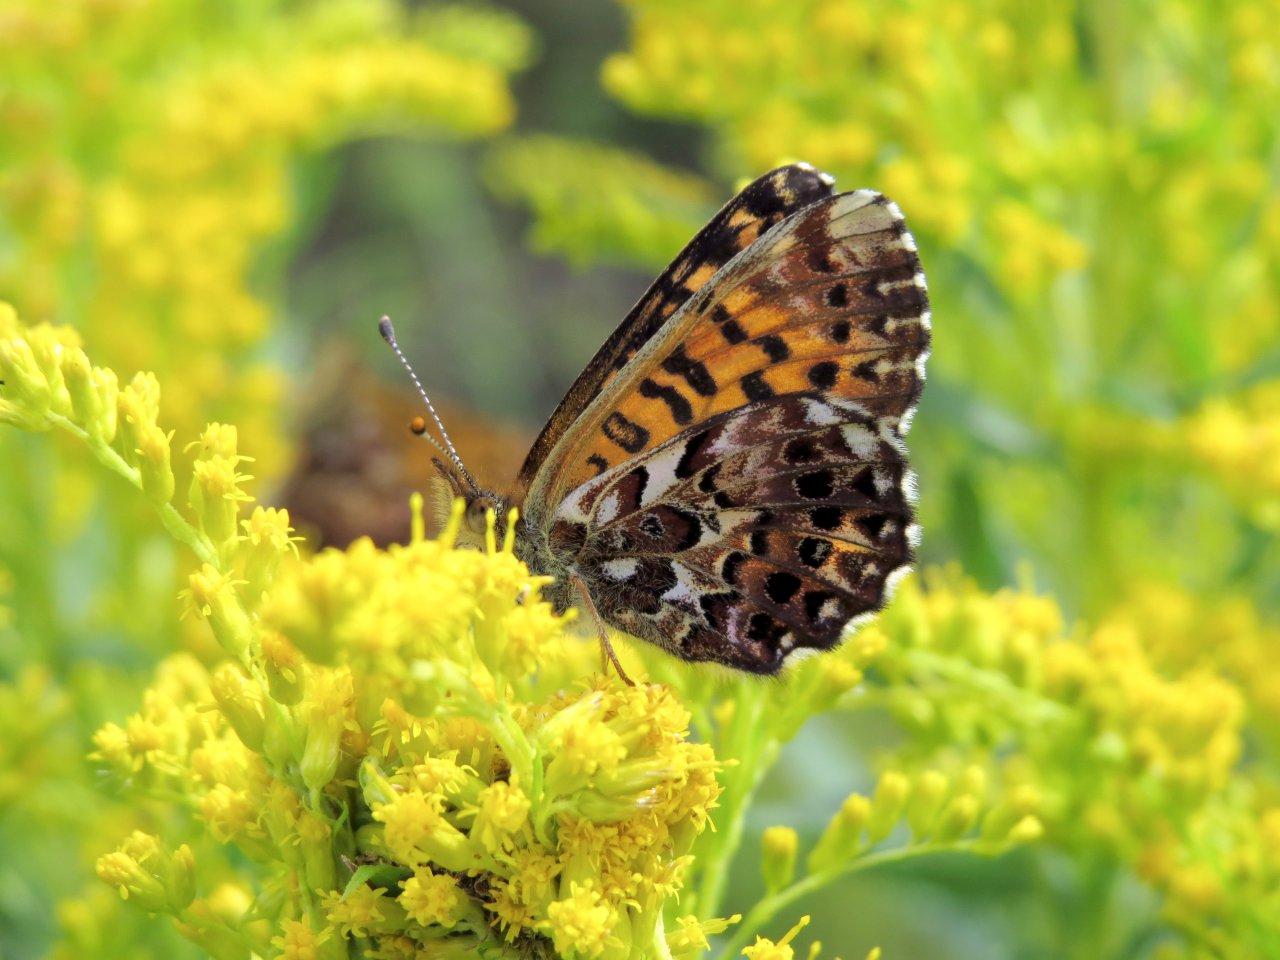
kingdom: Animalia
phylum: Arthropoda
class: Insecta
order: Lepidoptera
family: Nymphalidae
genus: Boloria
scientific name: Boloria chariclea
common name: Arctic Fritillary
